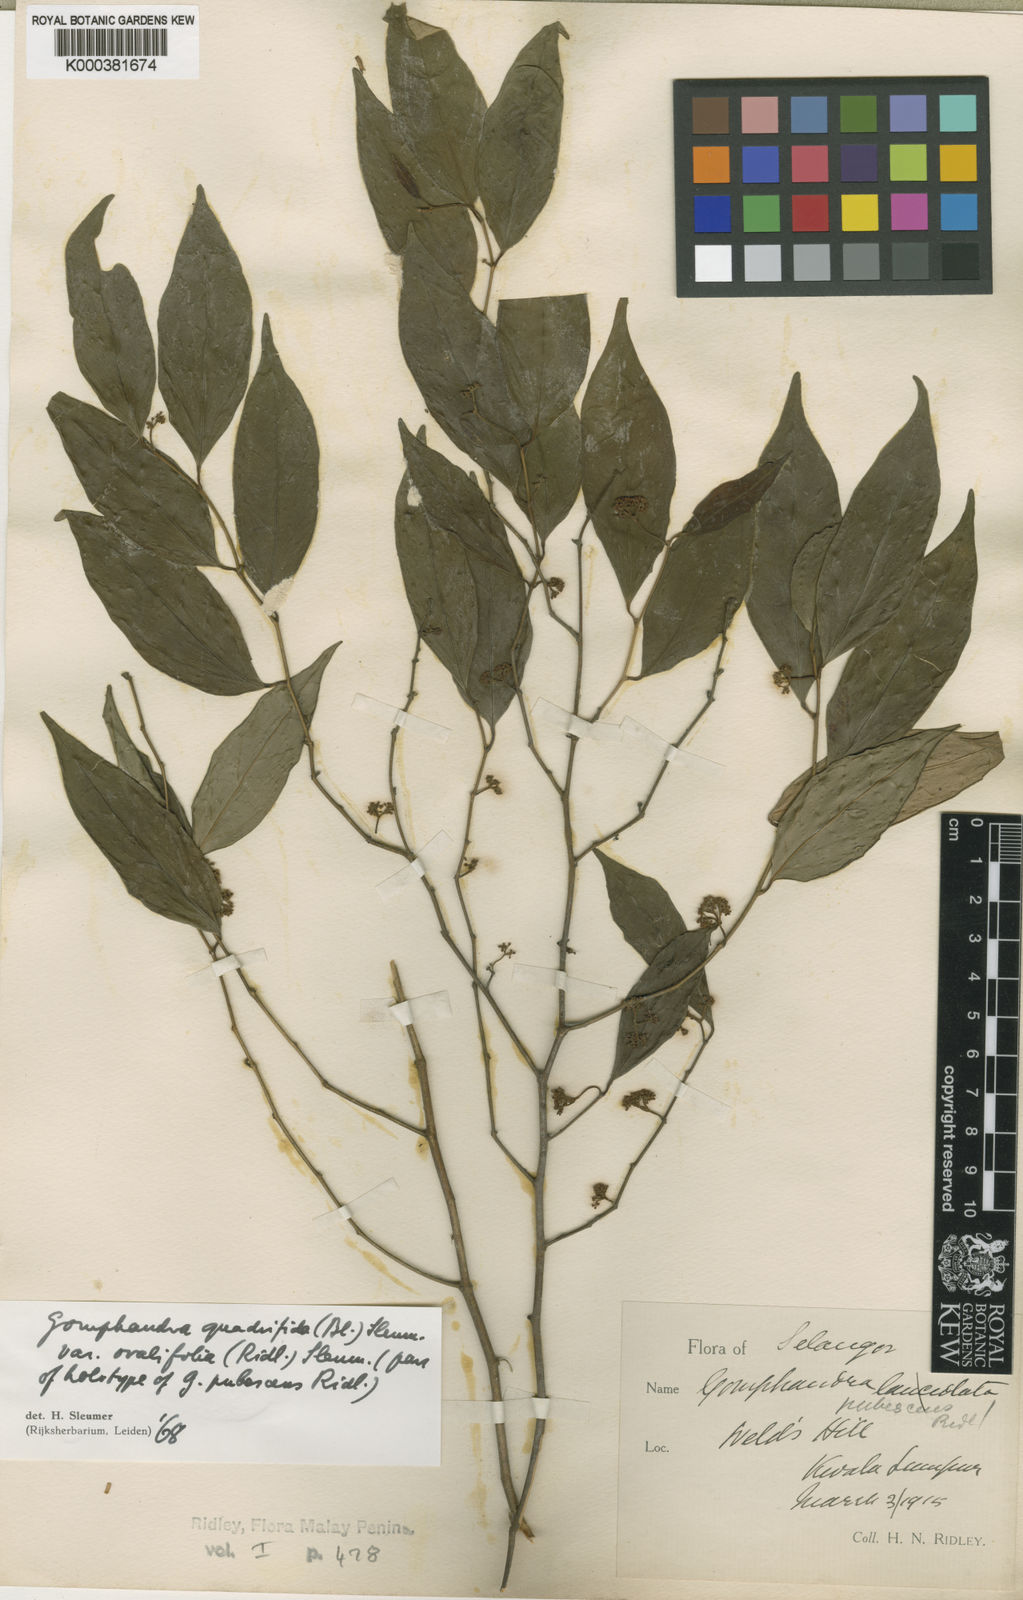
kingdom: Plantae
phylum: Tracheophyta
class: Magnoliopsida
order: Cardiopteridales
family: Stemonuraceae
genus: Gomphandra
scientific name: Gomphandra quadrifida
